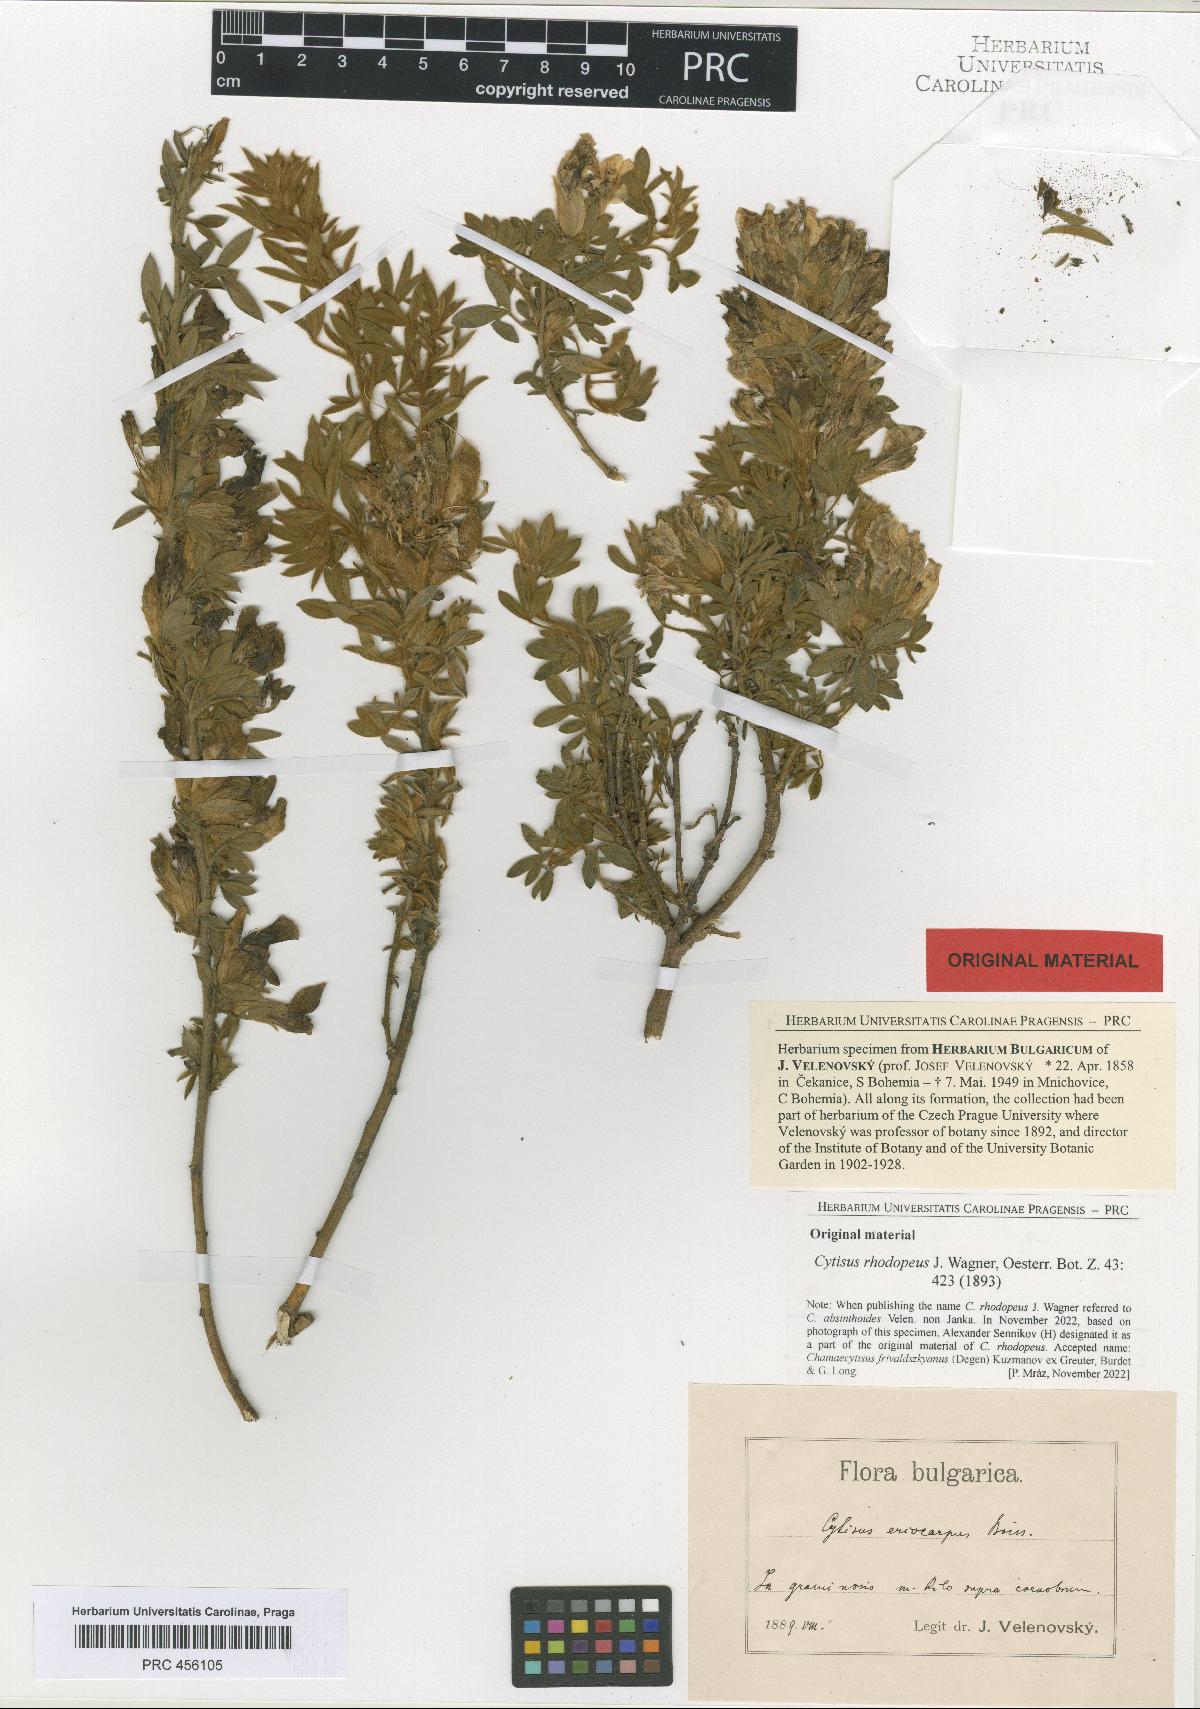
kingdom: Plantae
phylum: Tracheophyta
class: Magnoliopsida
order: Fabales
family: Fabaceae
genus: Chamaecytisus
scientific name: Chamaecytisus eriocarpus
